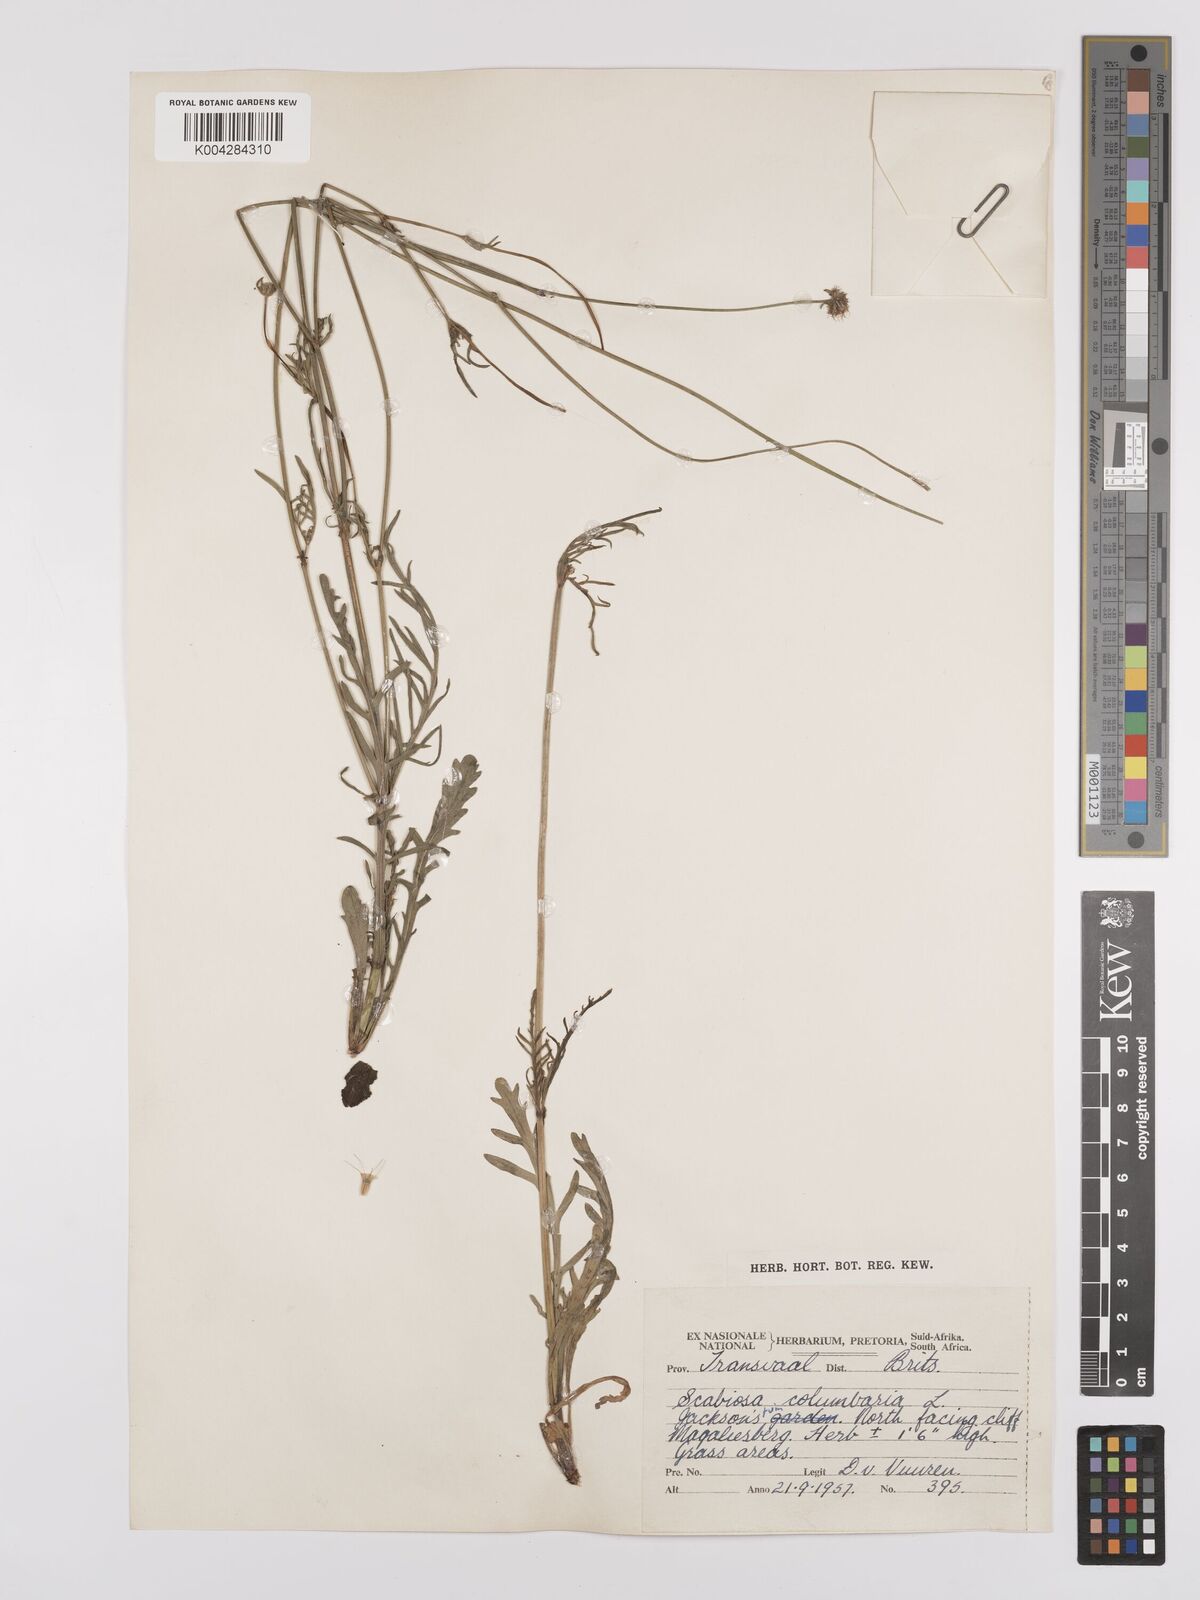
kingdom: Plantae
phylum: Tracheophyta
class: Magnoliopsida
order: Dipsacales
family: Caprifoliaceae
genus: Scabiosa
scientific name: Scabiosa austroafricana
